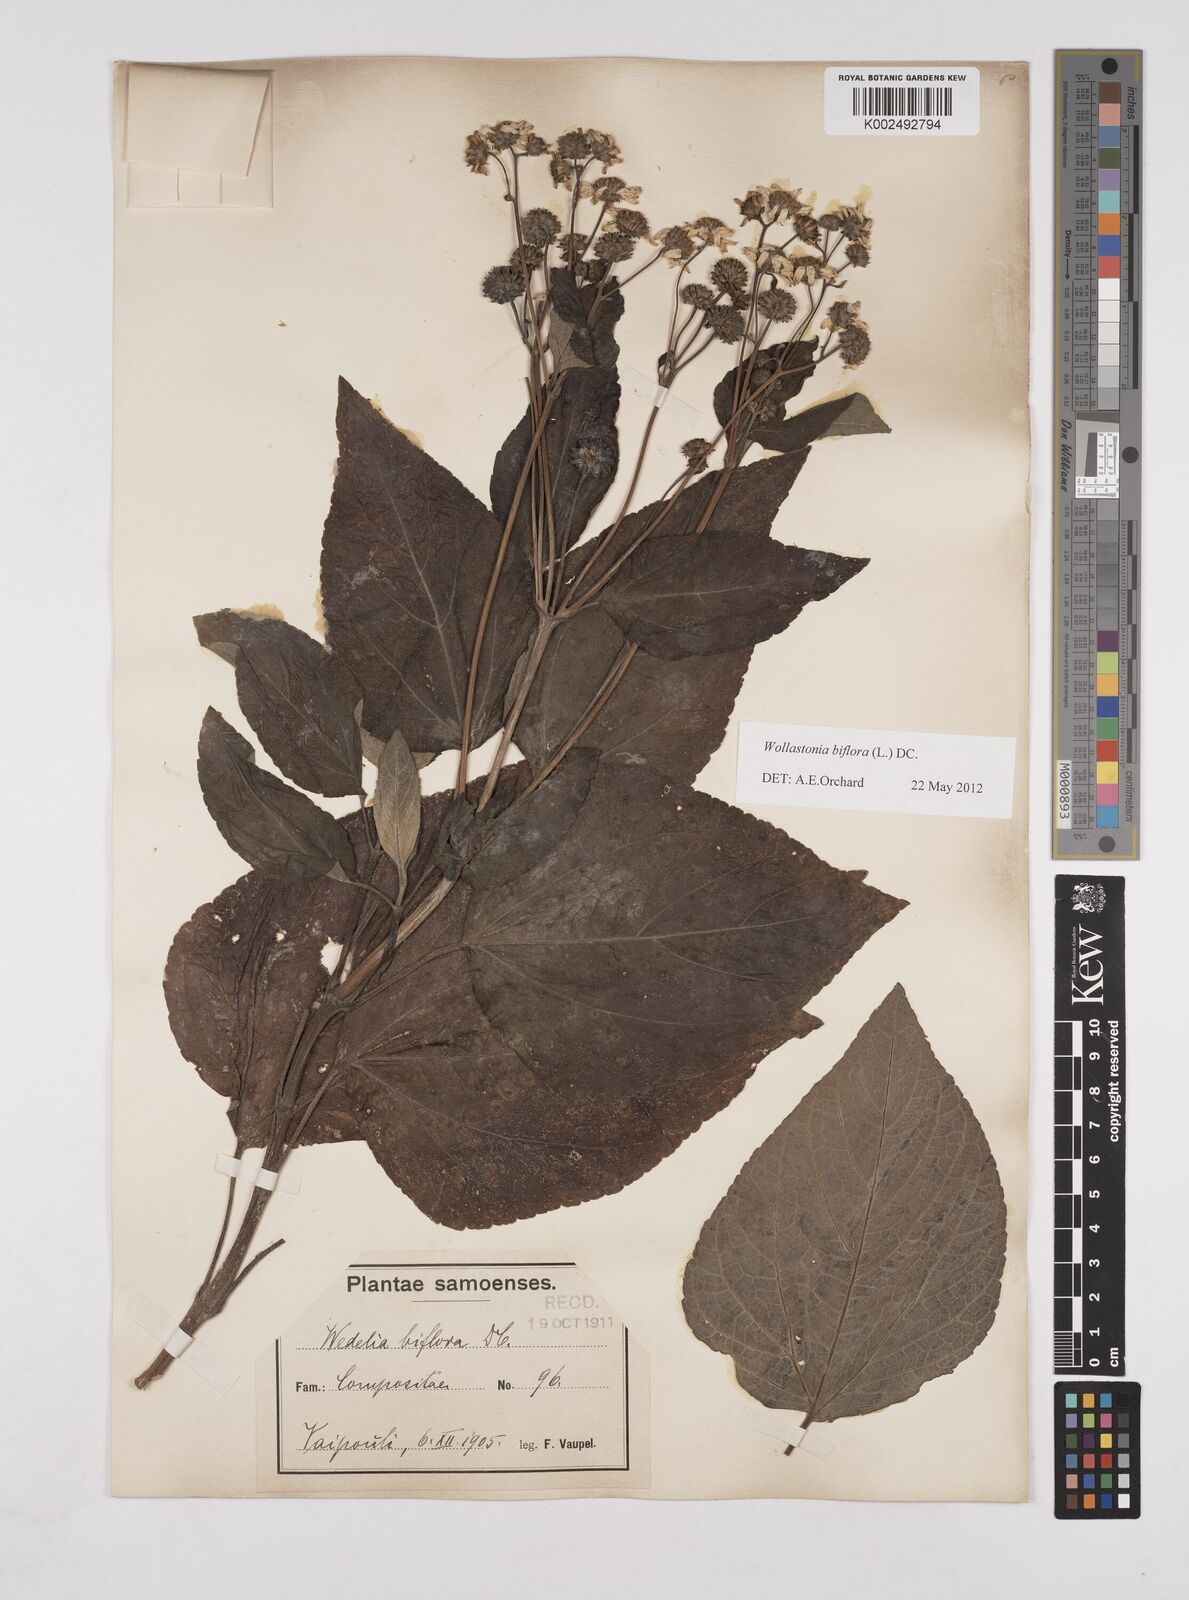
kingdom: Plantae
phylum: Tracheophyta
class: Magnoliopsida
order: Asterales
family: Asteraceae
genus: Wollastonia
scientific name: Wollastonia biflora
